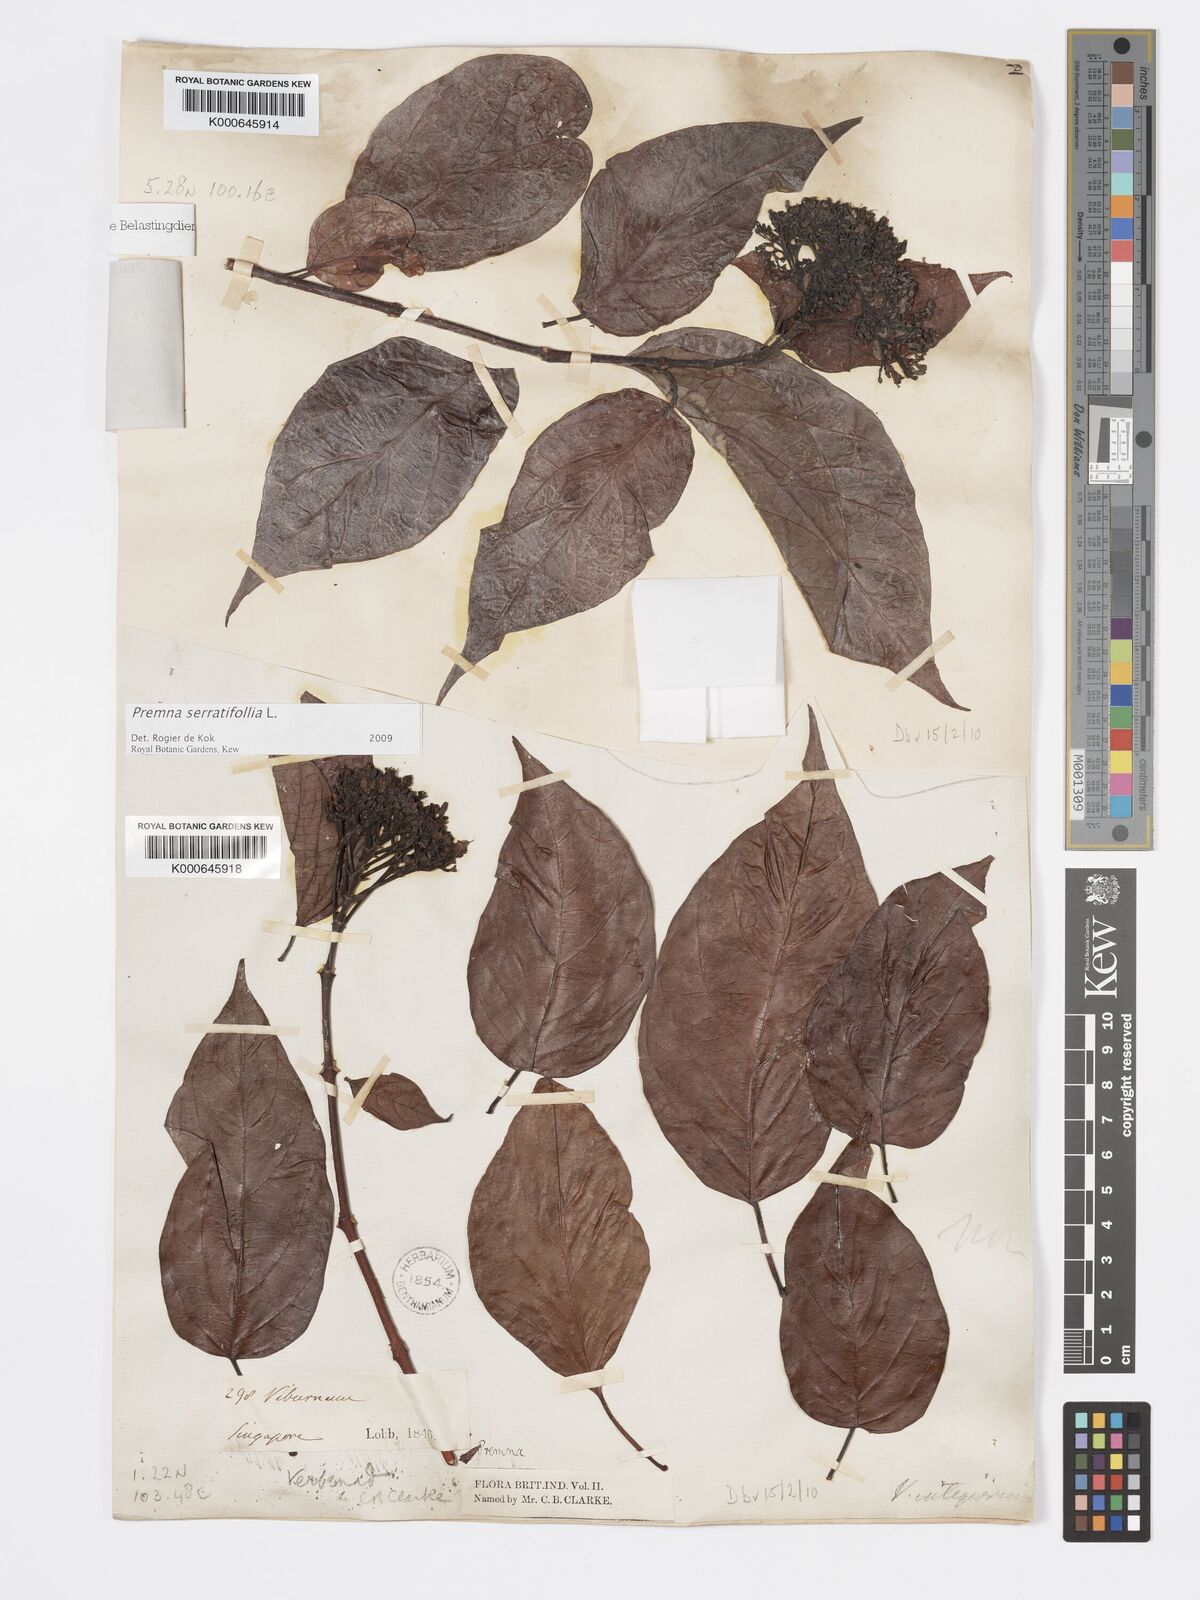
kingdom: Plantae
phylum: Tracheophyta
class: Magnoliopsida
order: Lamiales
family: Lamiaceae
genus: Premna
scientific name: Premna serratifolia
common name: Bastard guelder
